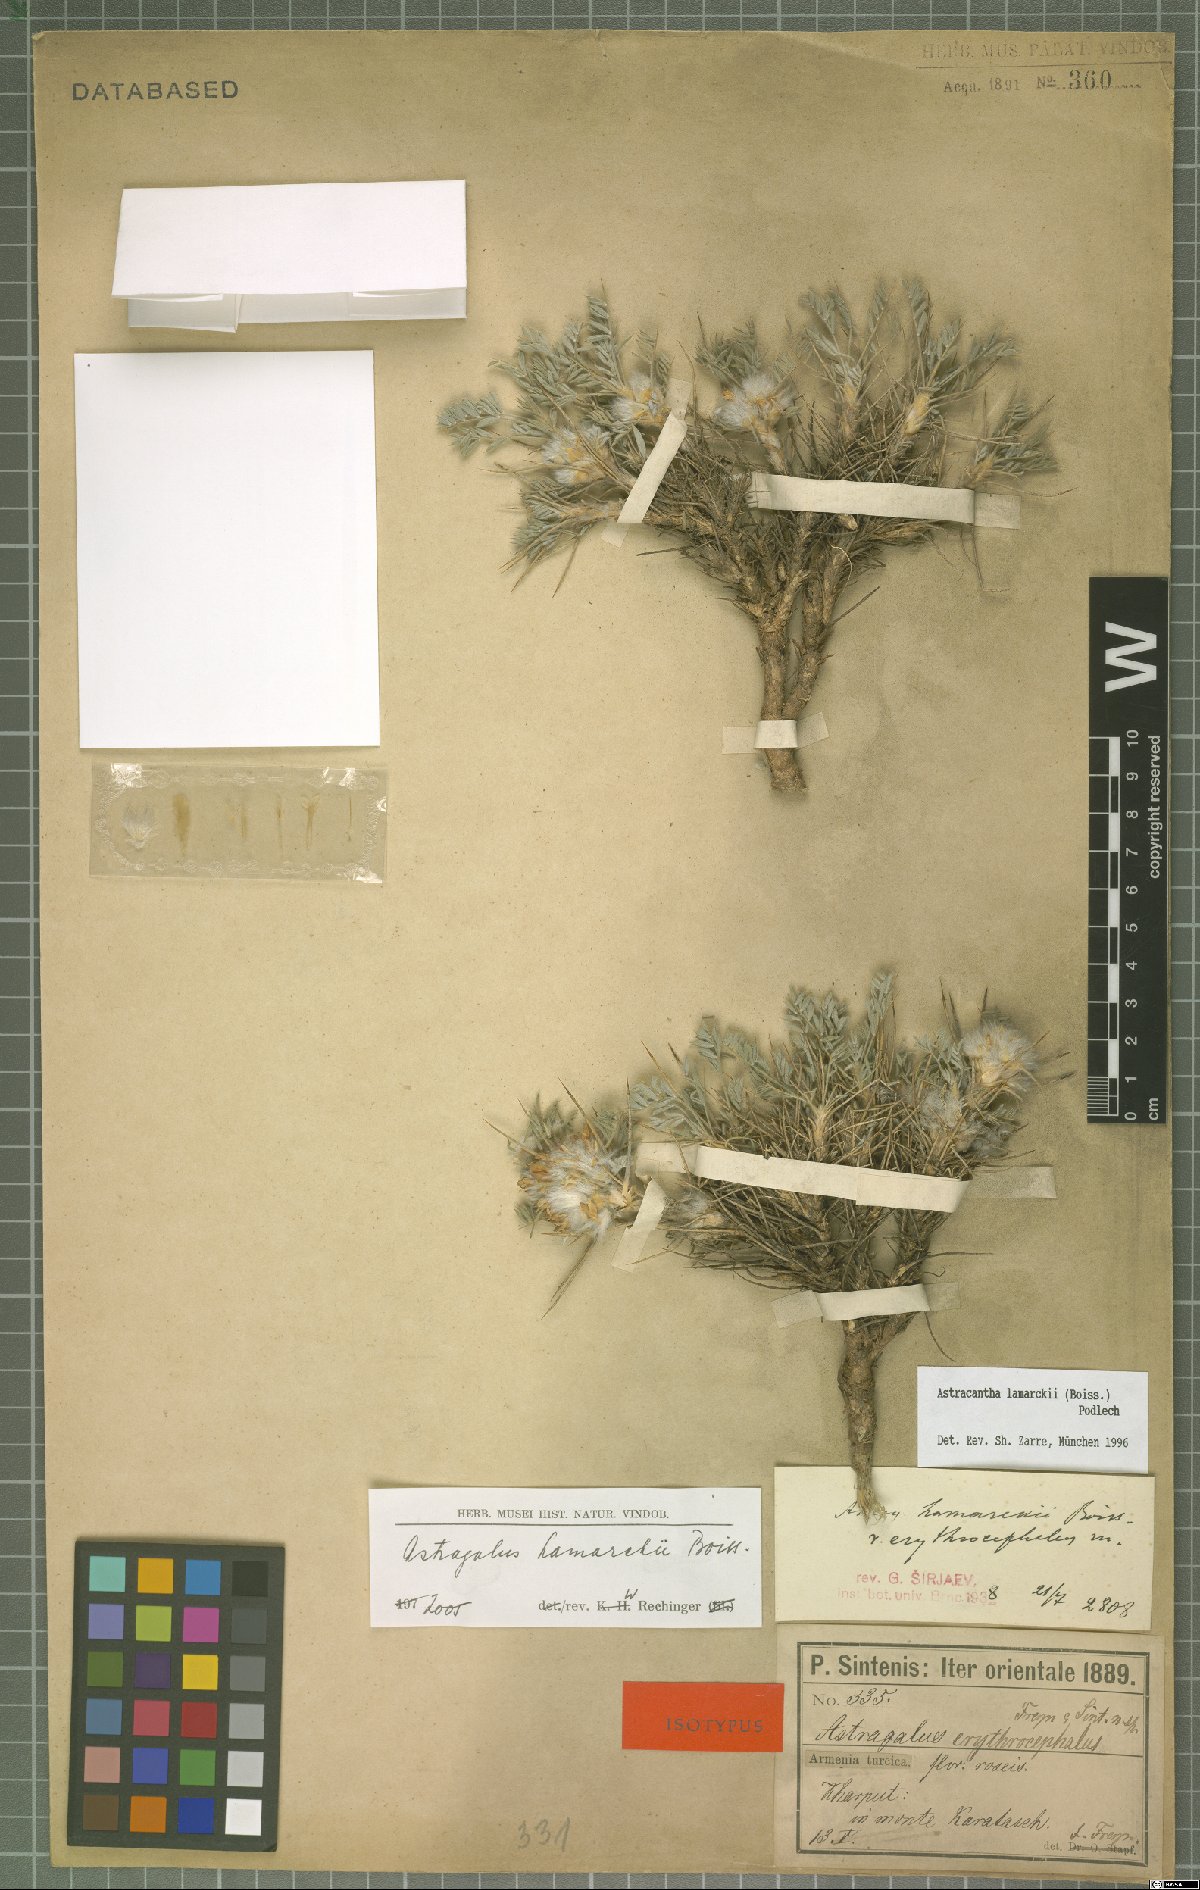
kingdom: Plantae
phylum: Tracheophyta
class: Magnoliopsida
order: Fabales
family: Fabaceae
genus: Astragalus
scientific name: Astragalus lamarckii
